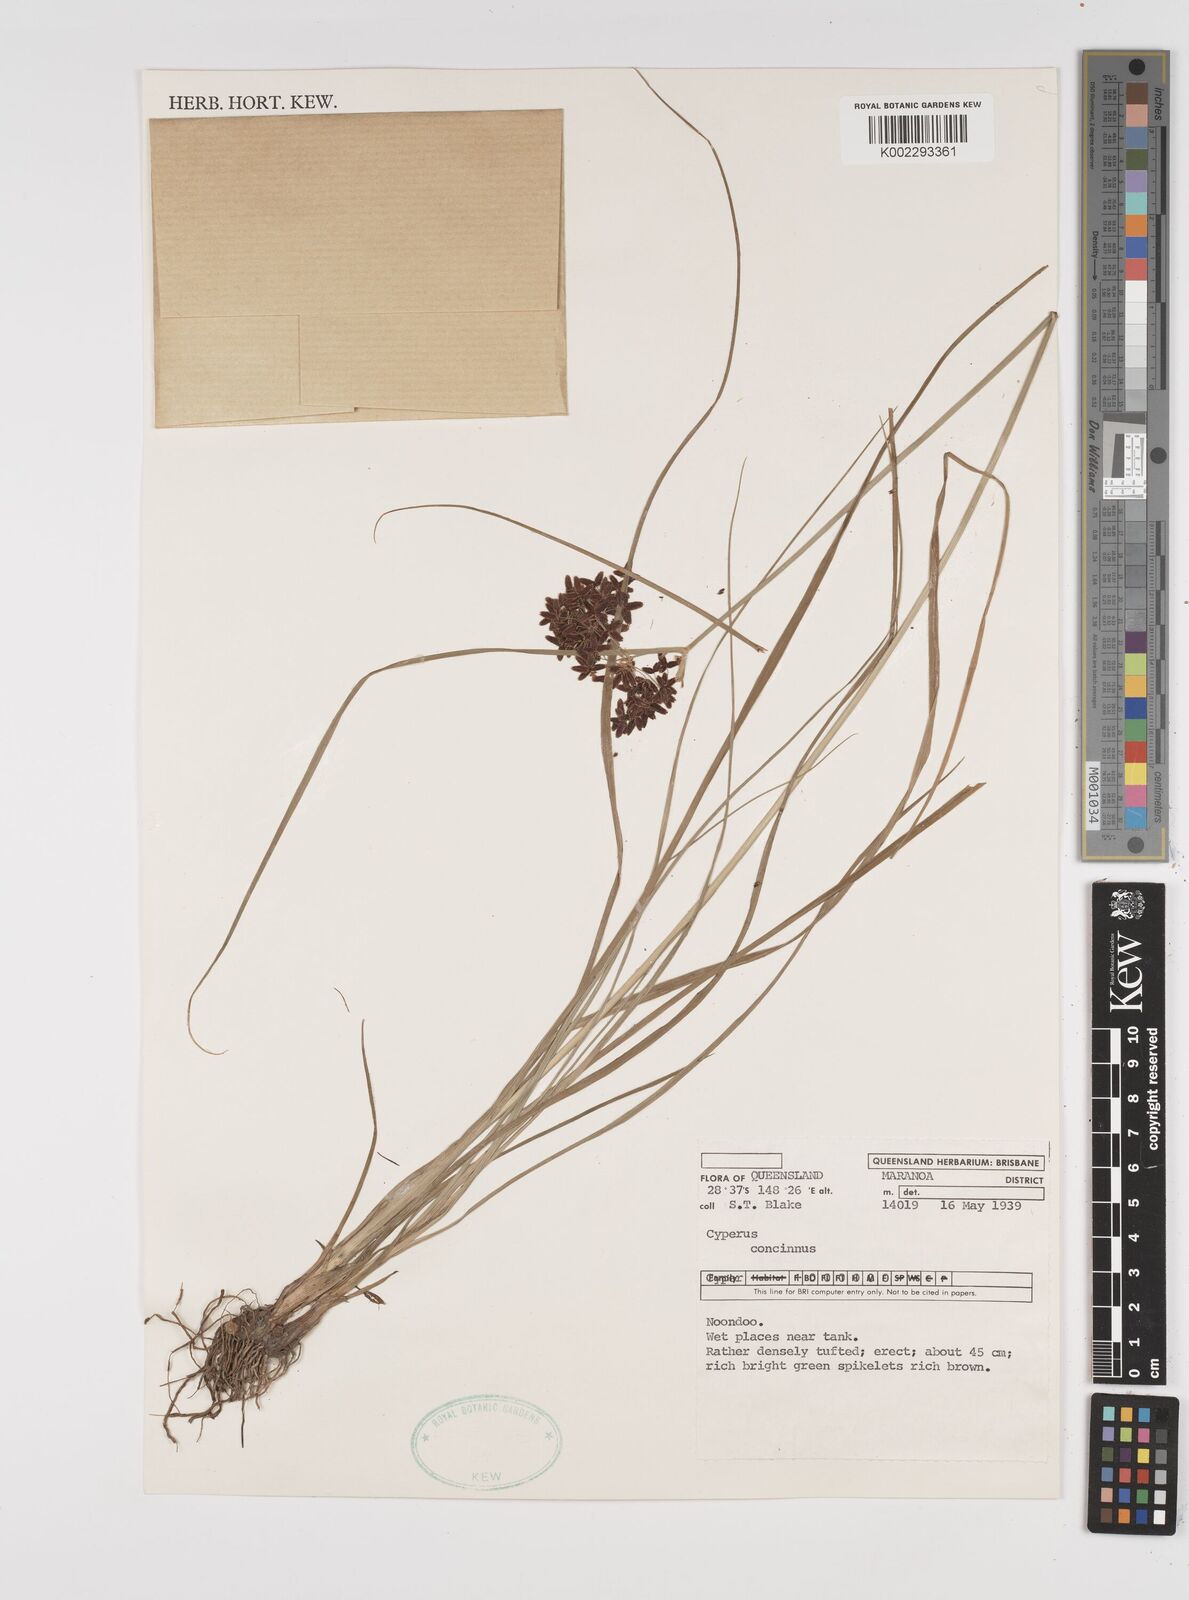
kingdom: Plantae
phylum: Tracheophyta
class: Liliopsida
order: Poales
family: Cyperaceae
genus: Cyperus
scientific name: Cyperus concinnus
